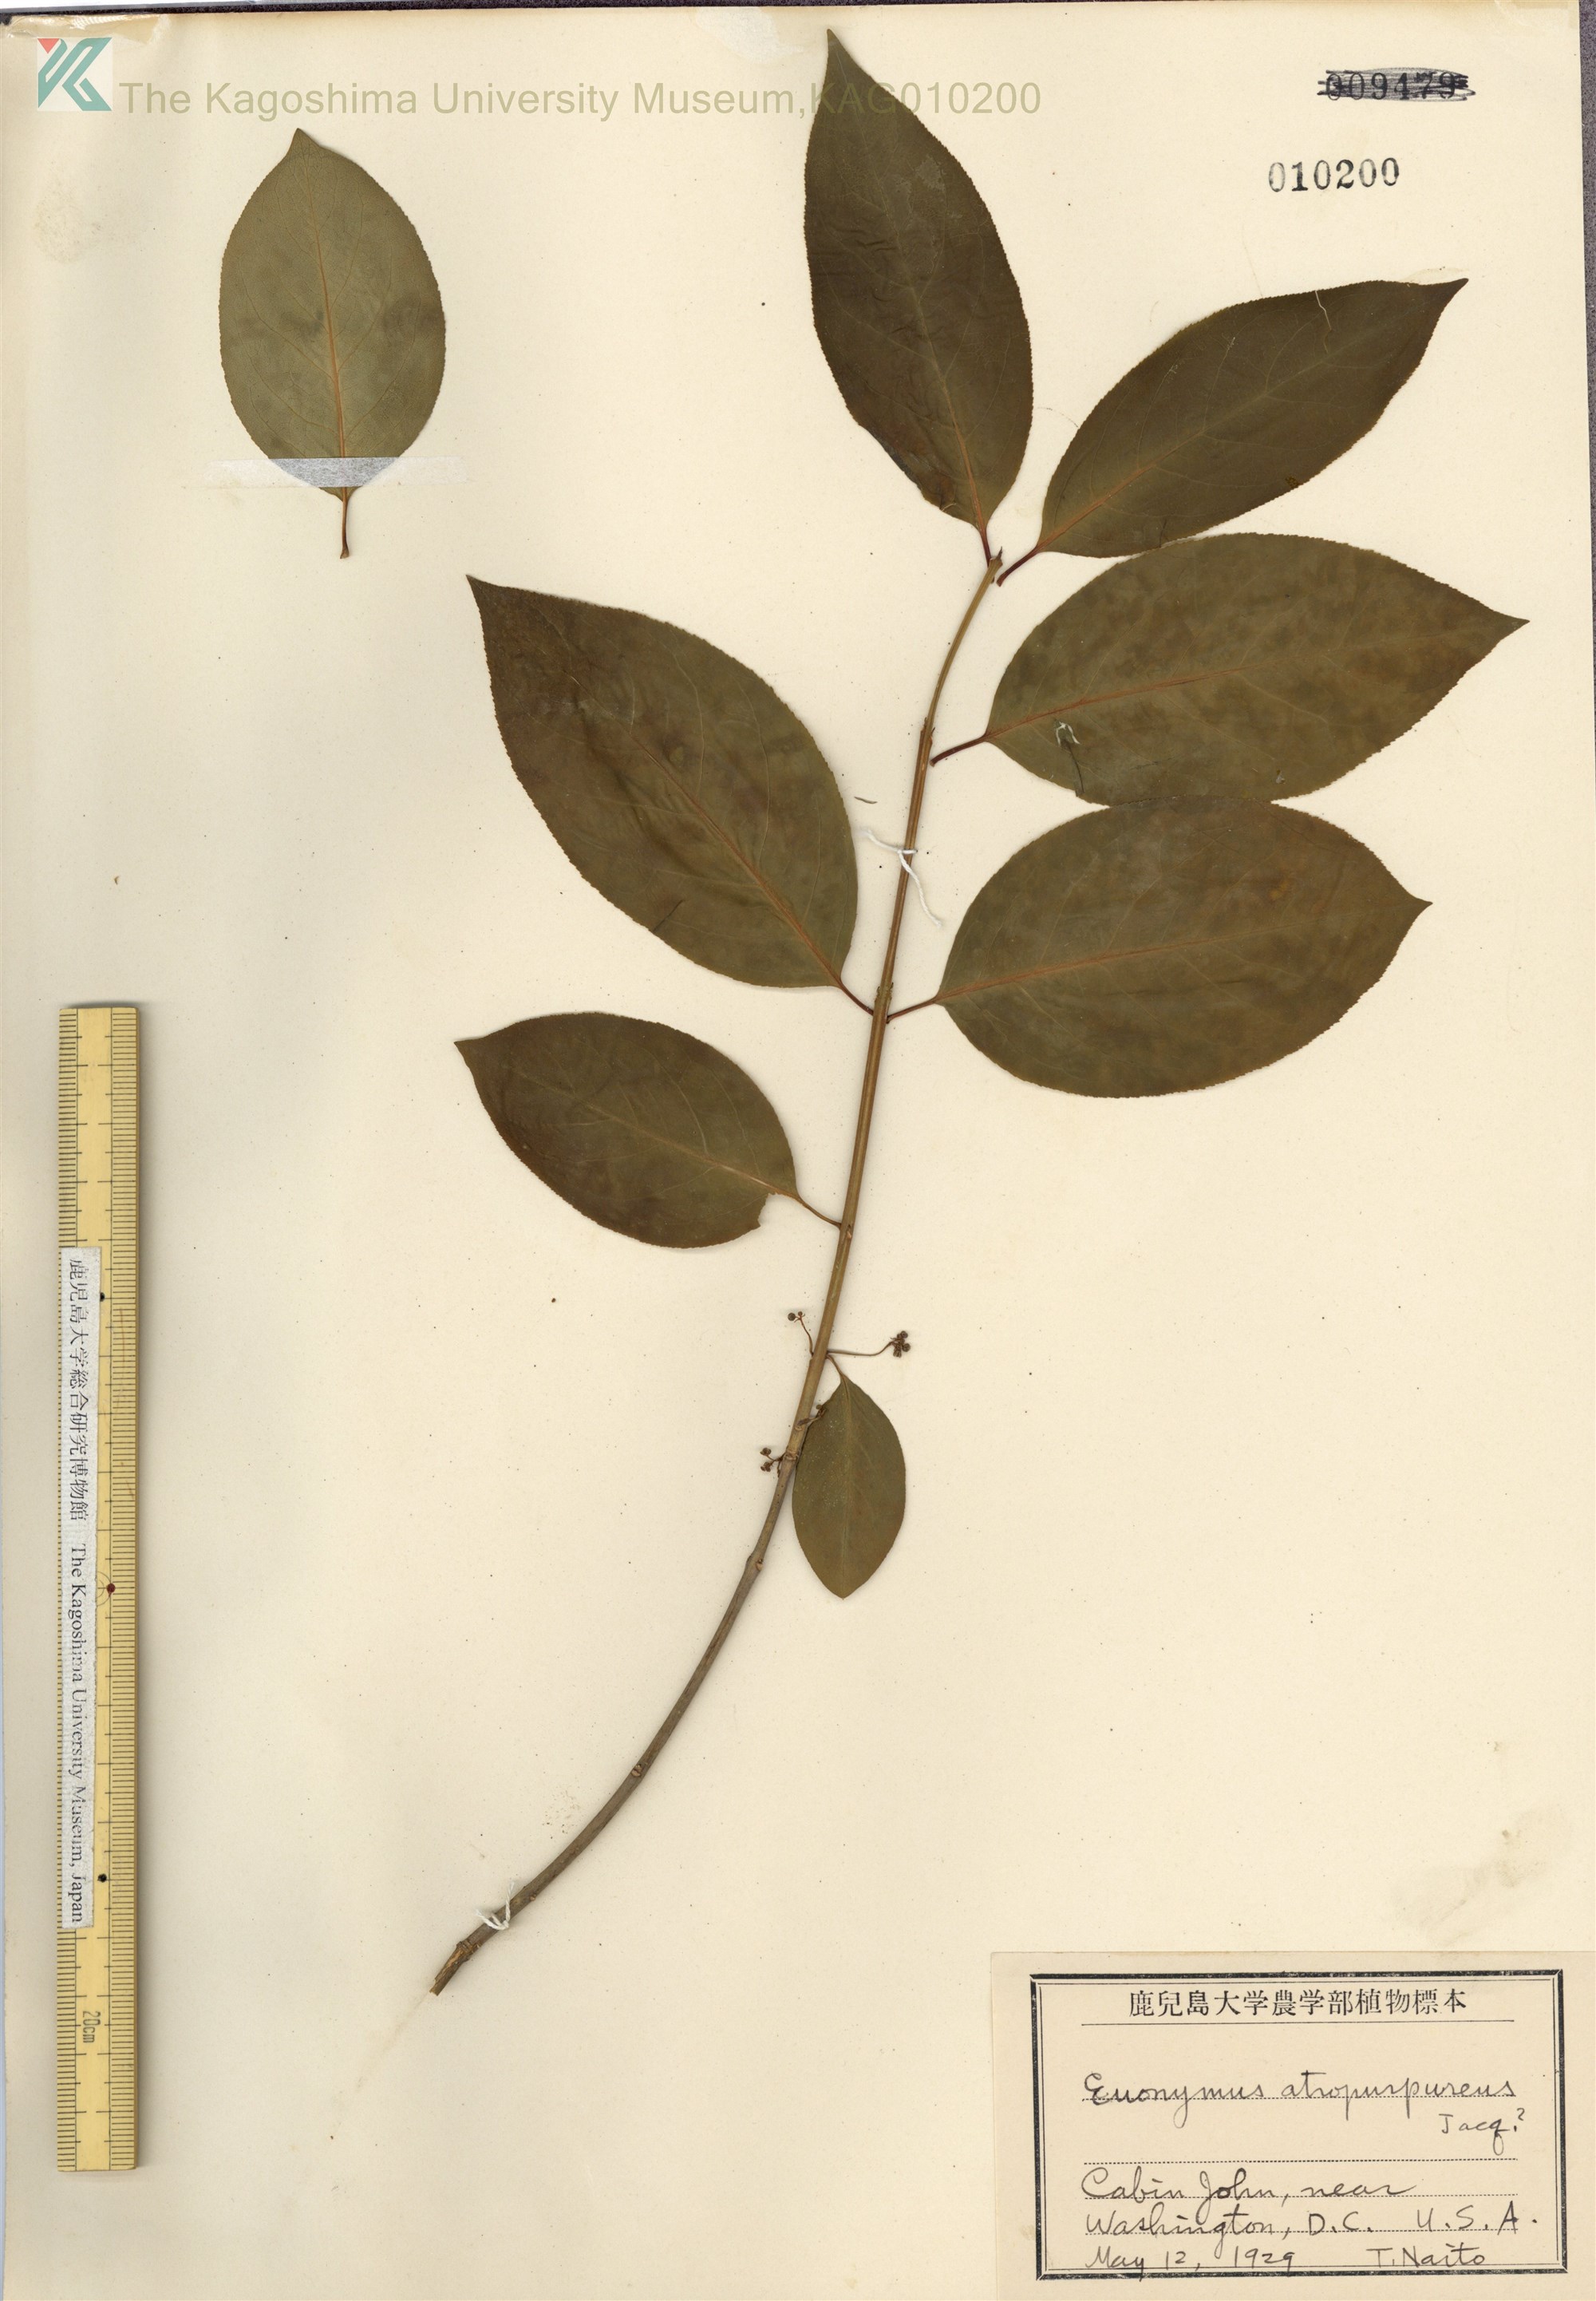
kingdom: Plantae
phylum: Tracheophyta
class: Magnoliopsida
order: Celastrales
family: Celastraceae
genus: Euonymus
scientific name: Euonymus atropurpureus
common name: Eastern wahoo
